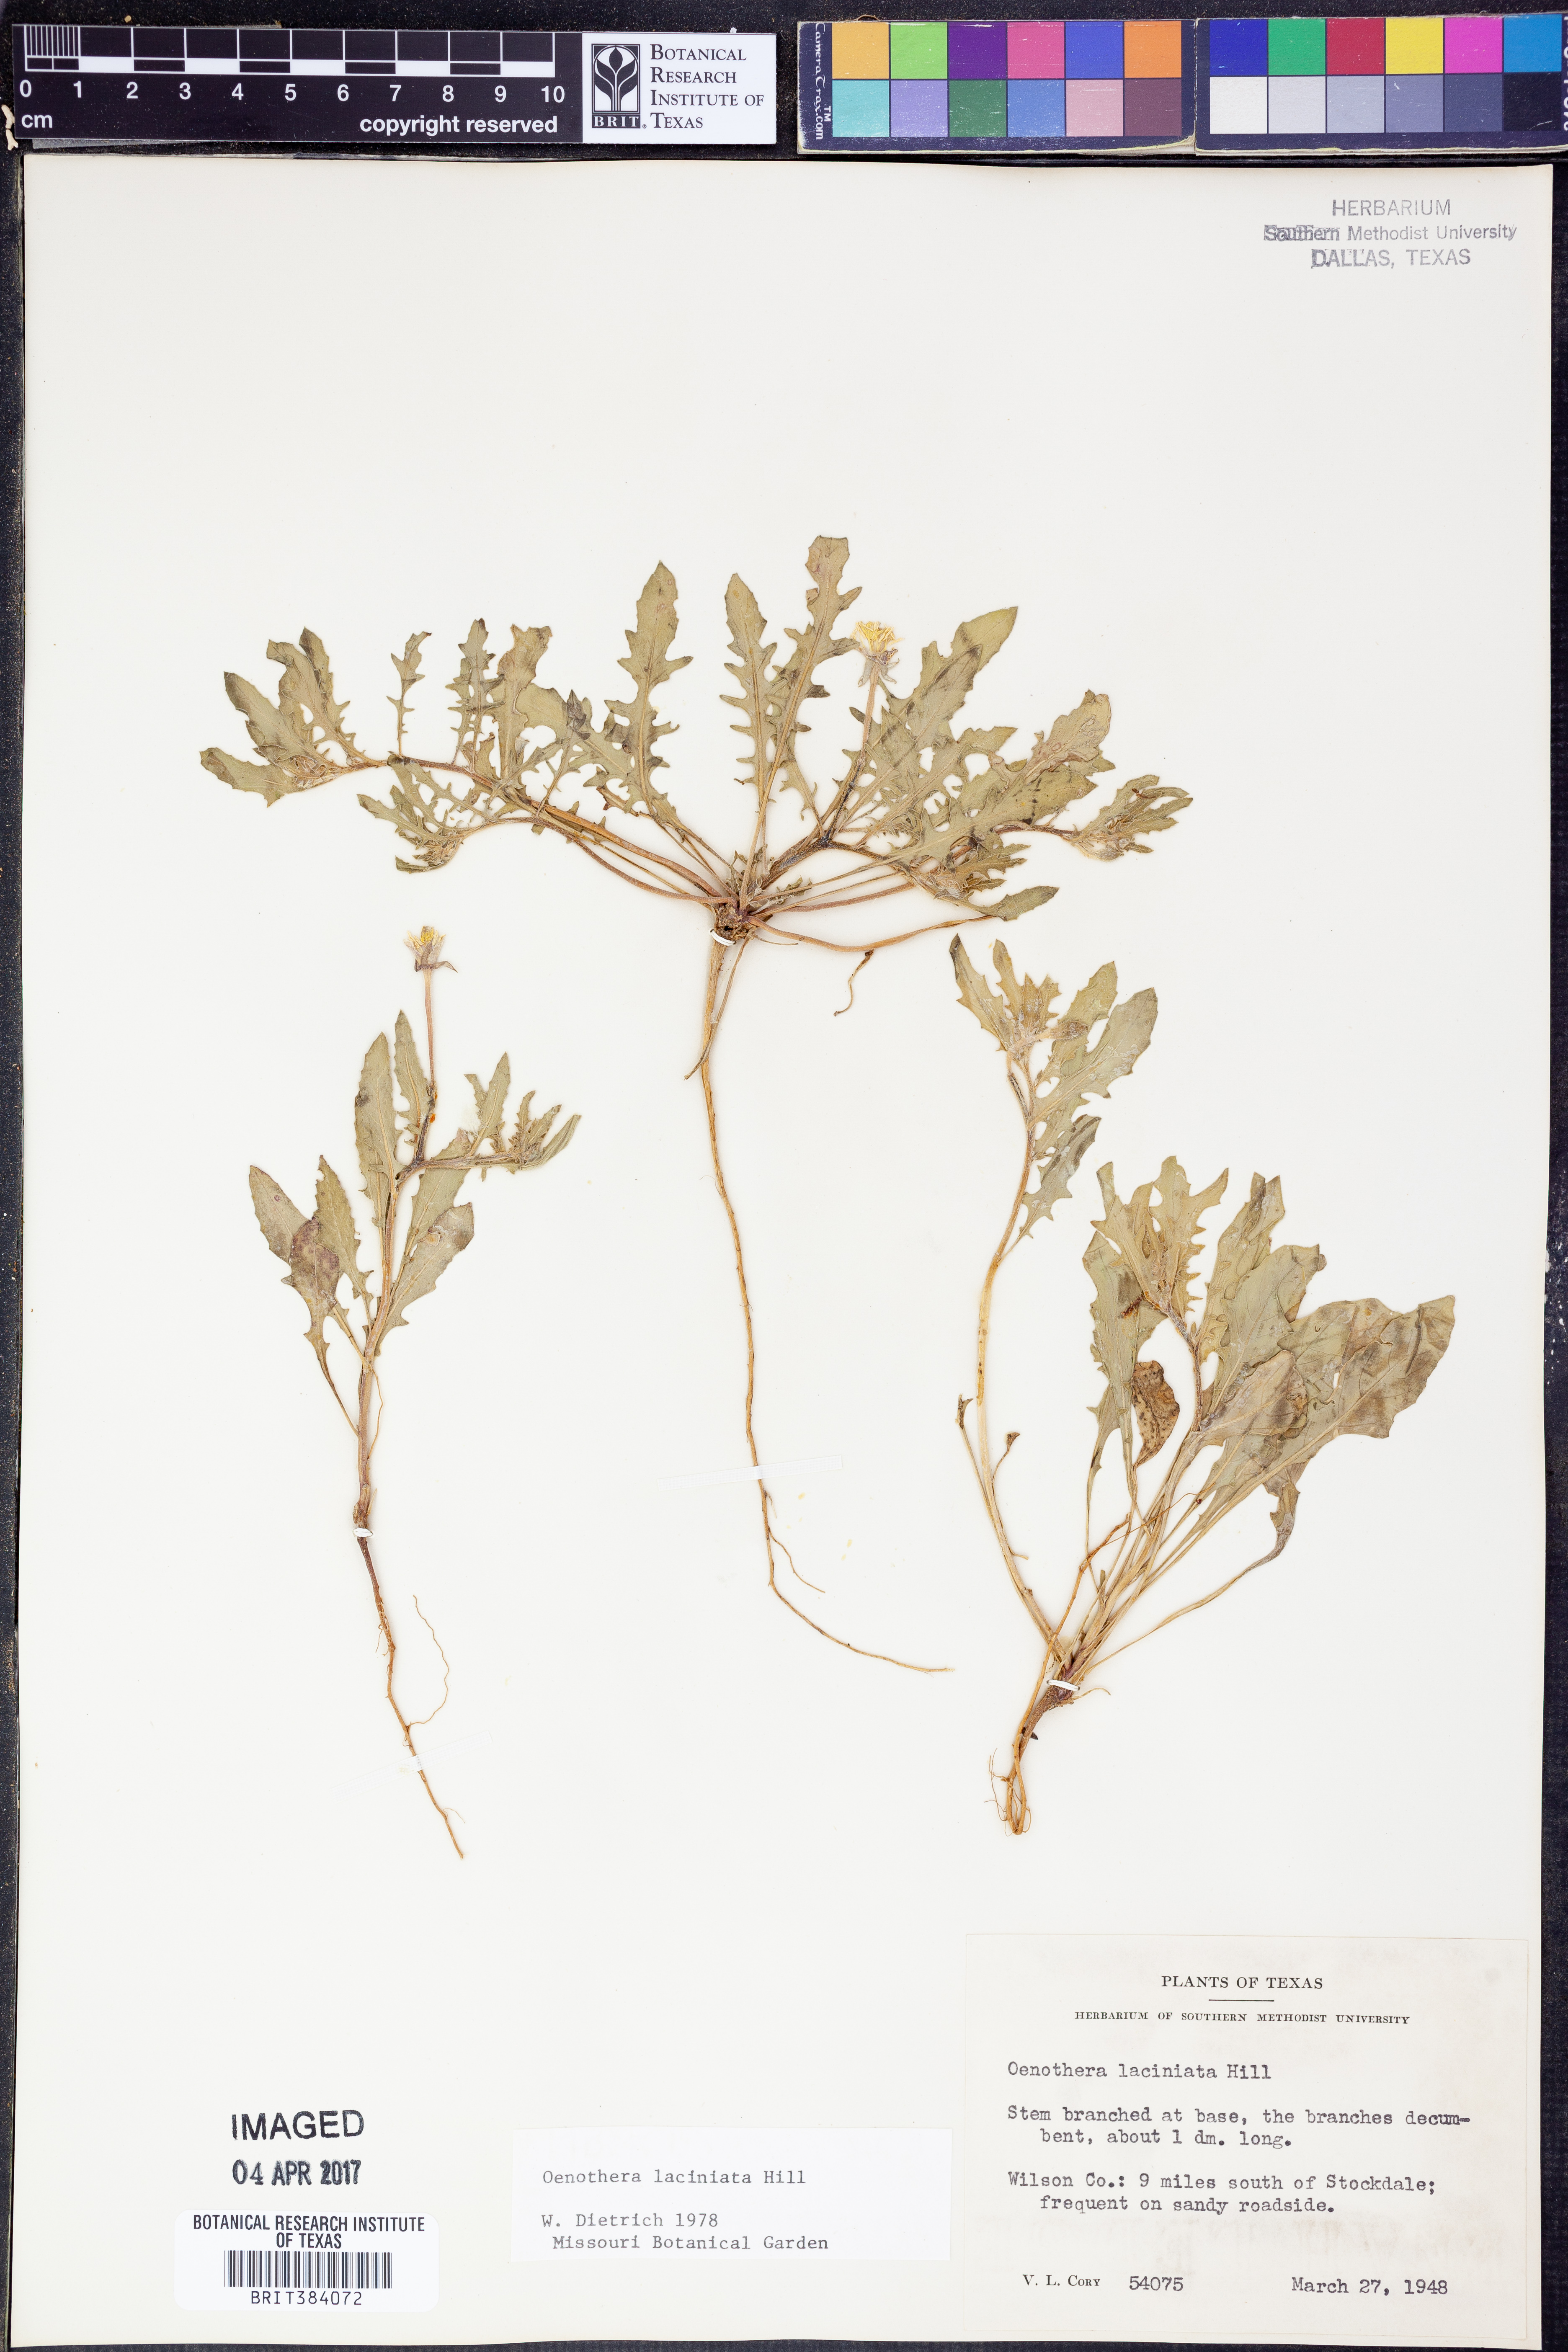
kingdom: Plantae
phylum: Tracheophyta
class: Magnoliopsida
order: Myrtales
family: Onagraceae
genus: Oenothera
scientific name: Oenothera laciniata
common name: Cut-leaved evening-primrose
